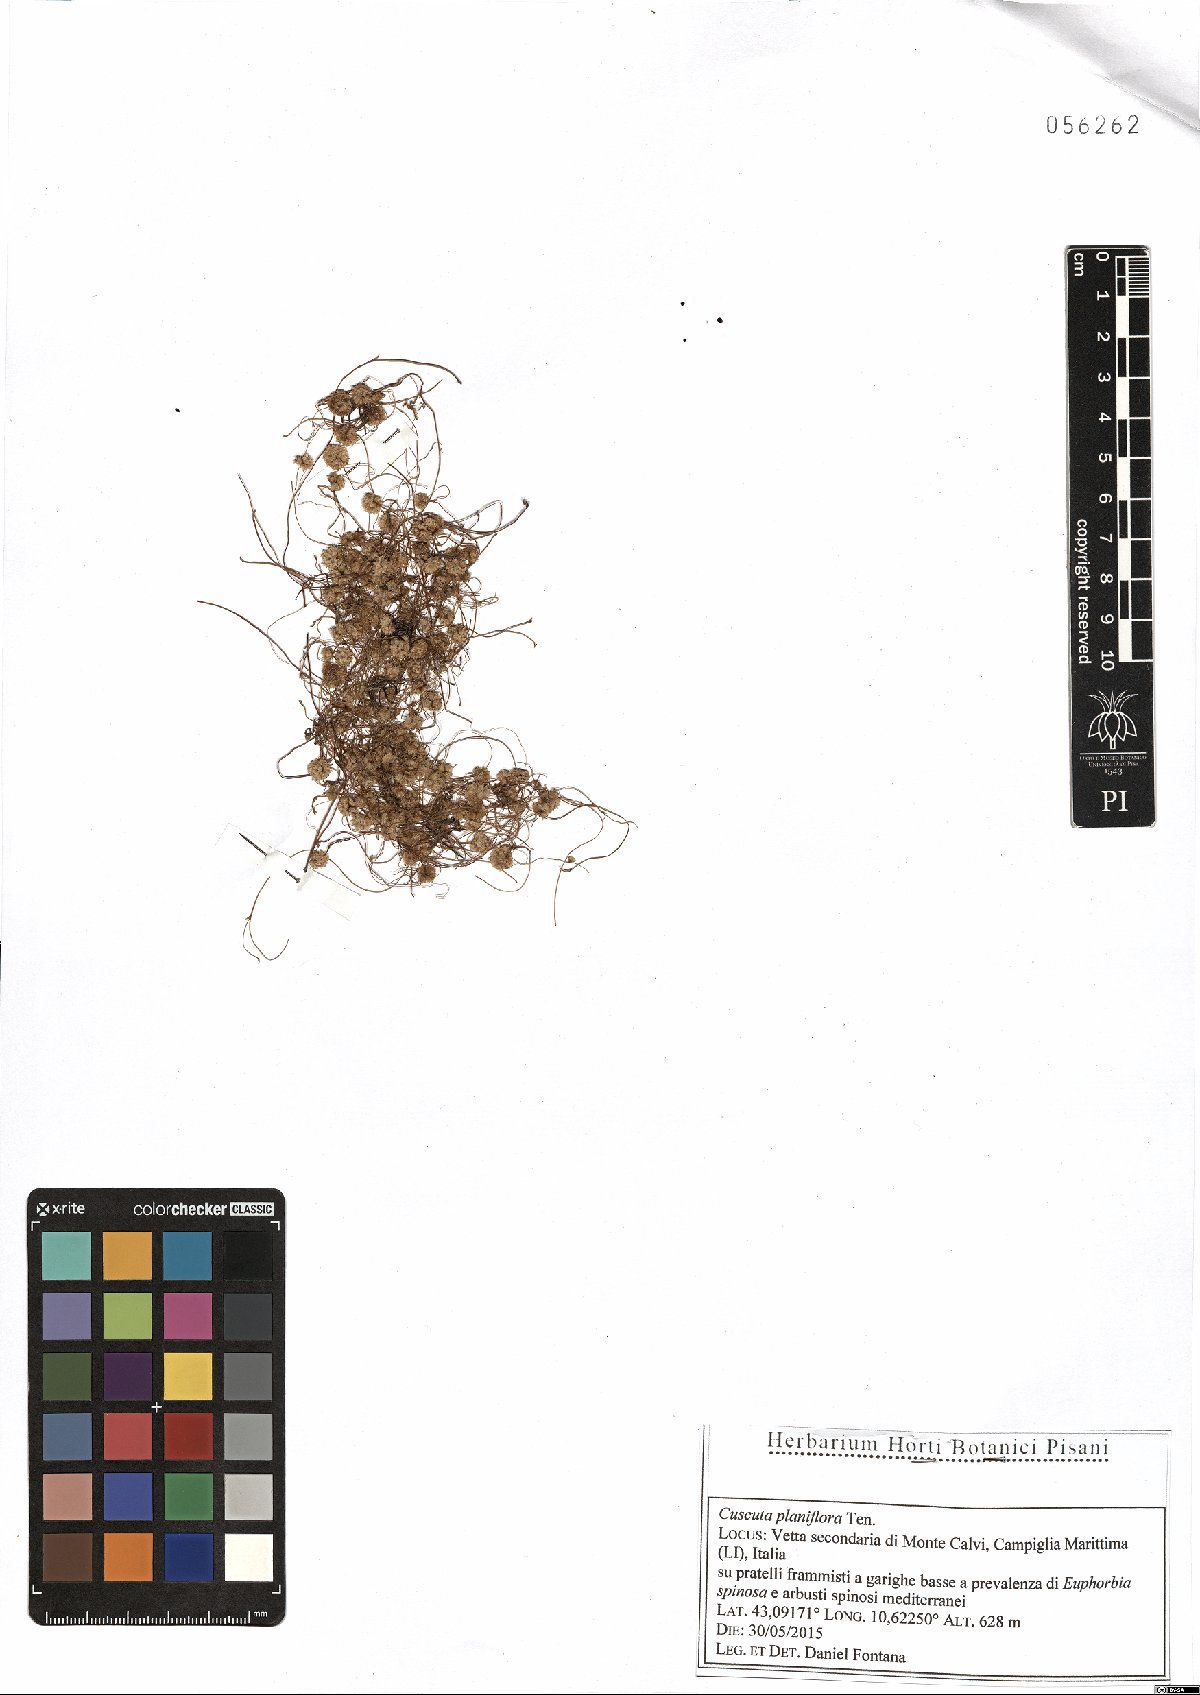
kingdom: Plantae
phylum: Tracheophyta
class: Magnoliopsida
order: Solanales
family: Convolvulaceae
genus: Cuscuta
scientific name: Cuscuta planiflora
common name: Small-seed alfalfa dodder
